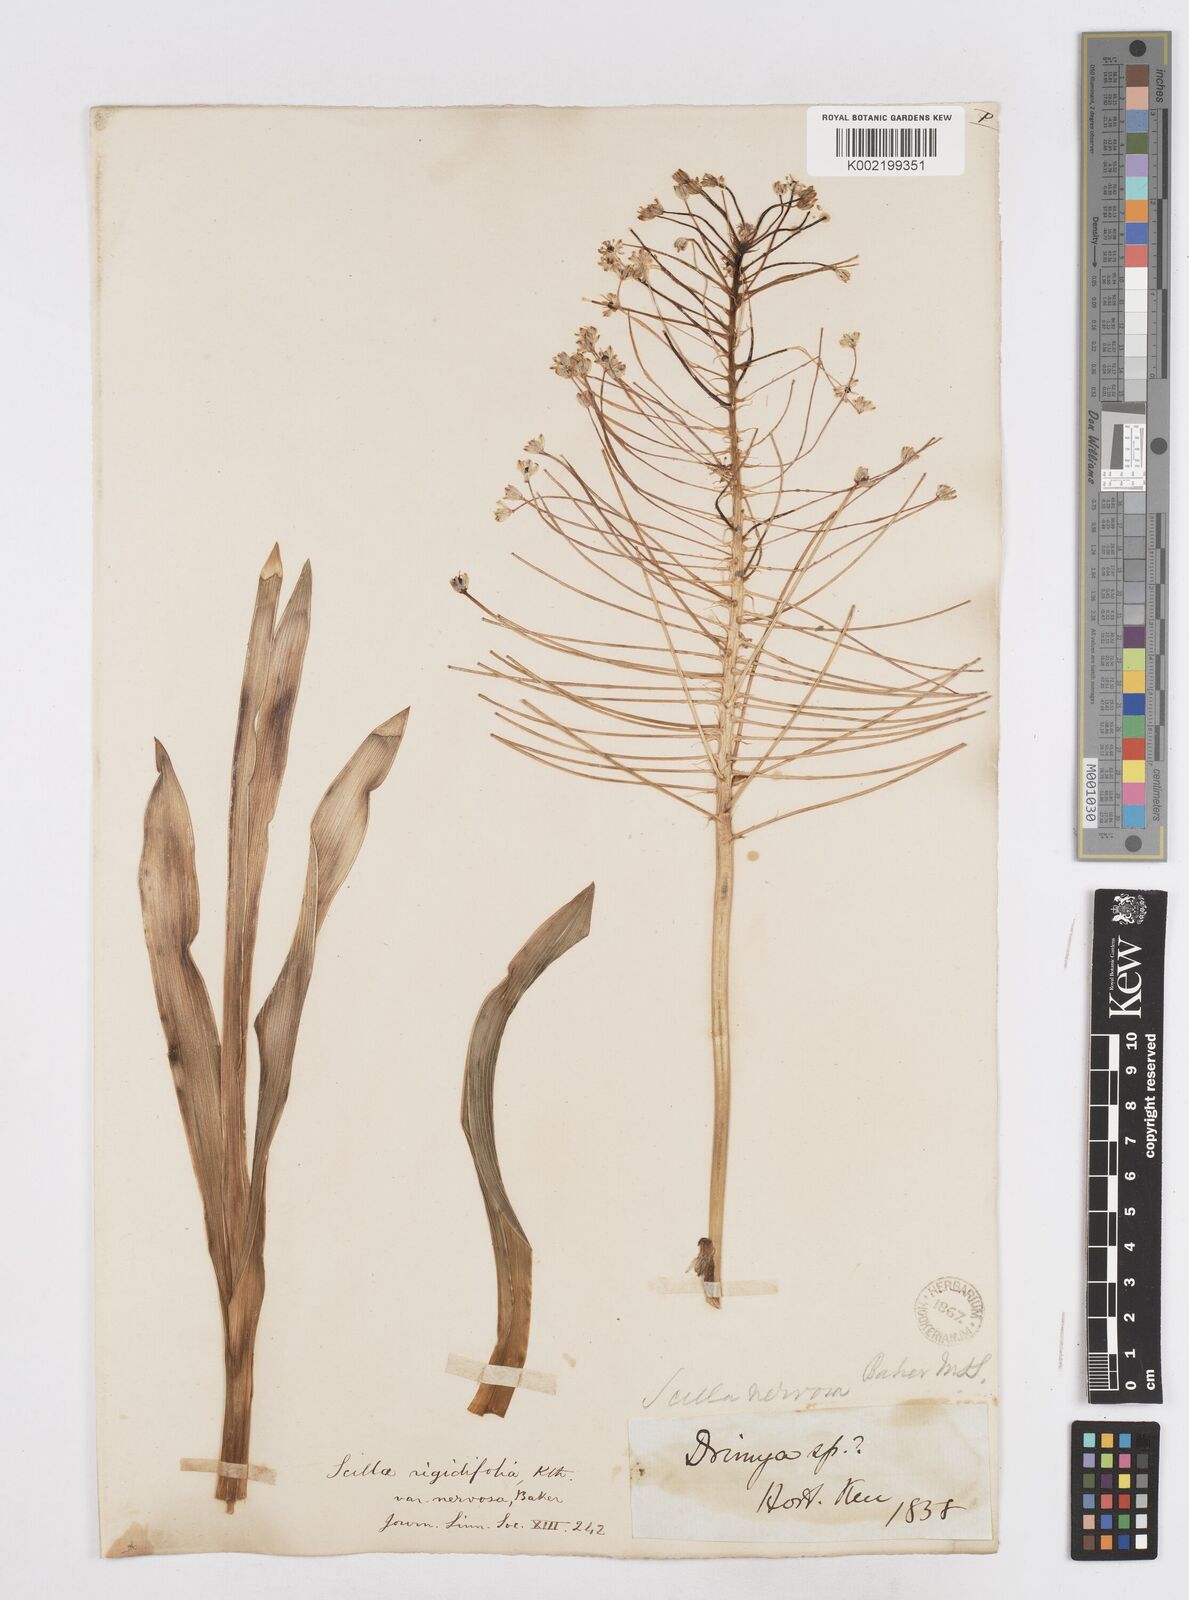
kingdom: Plantae
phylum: Tracheophyta
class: Liliopsida
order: Asparagales
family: Asparagaceae
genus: Schizocarphus
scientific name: Schizocarphus nervosus
